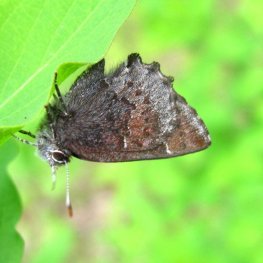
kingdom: Animalia
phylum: Arthropoda
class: Insecta
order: Lepidoptera
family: Lycaenidae
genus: Callophrys
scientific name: Callophrys polios
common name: Hoary Elfin
